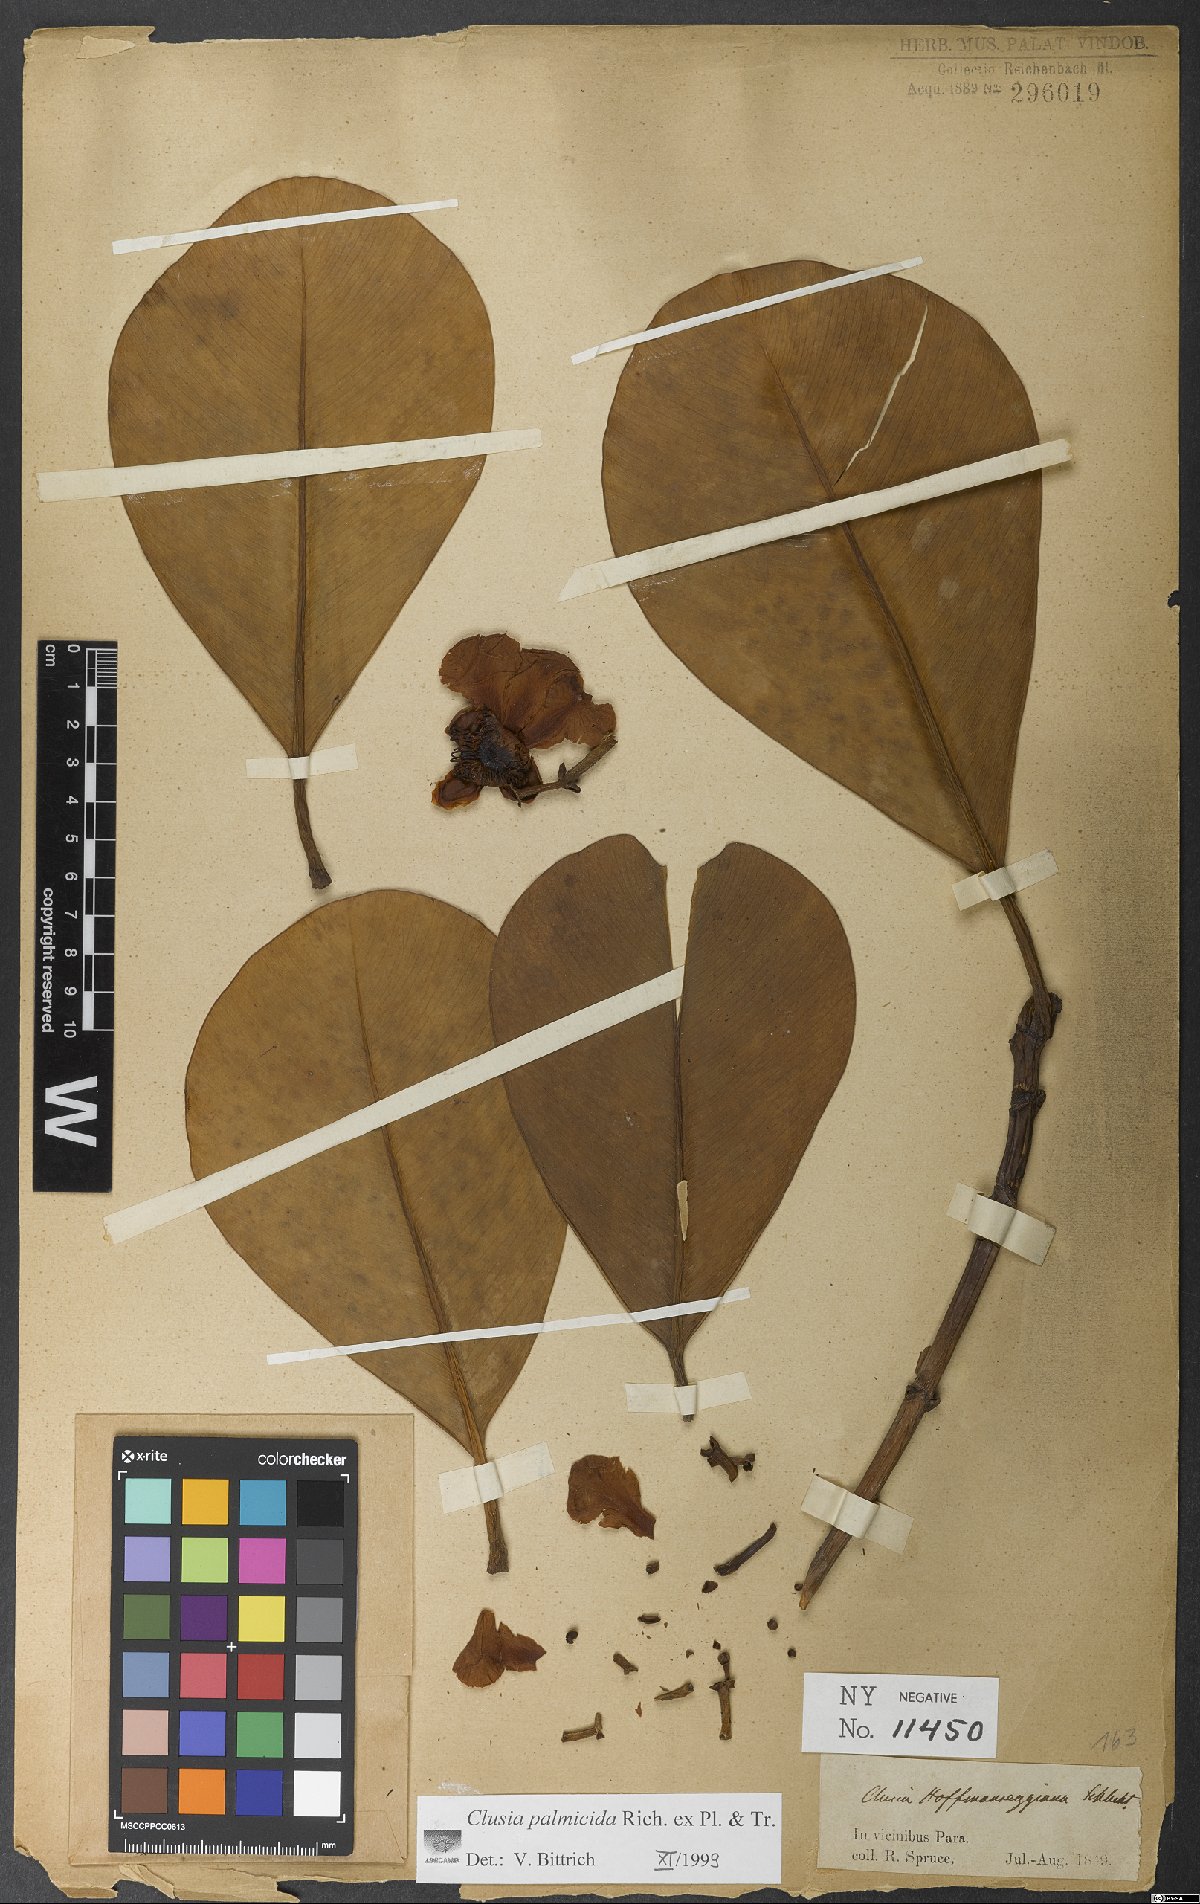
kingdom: Plantae
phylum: Tracheophyta
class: Magnoliopsida
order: Malpighiales
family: Clusiaceae
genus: Clusia
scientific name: Clusia palmicida
